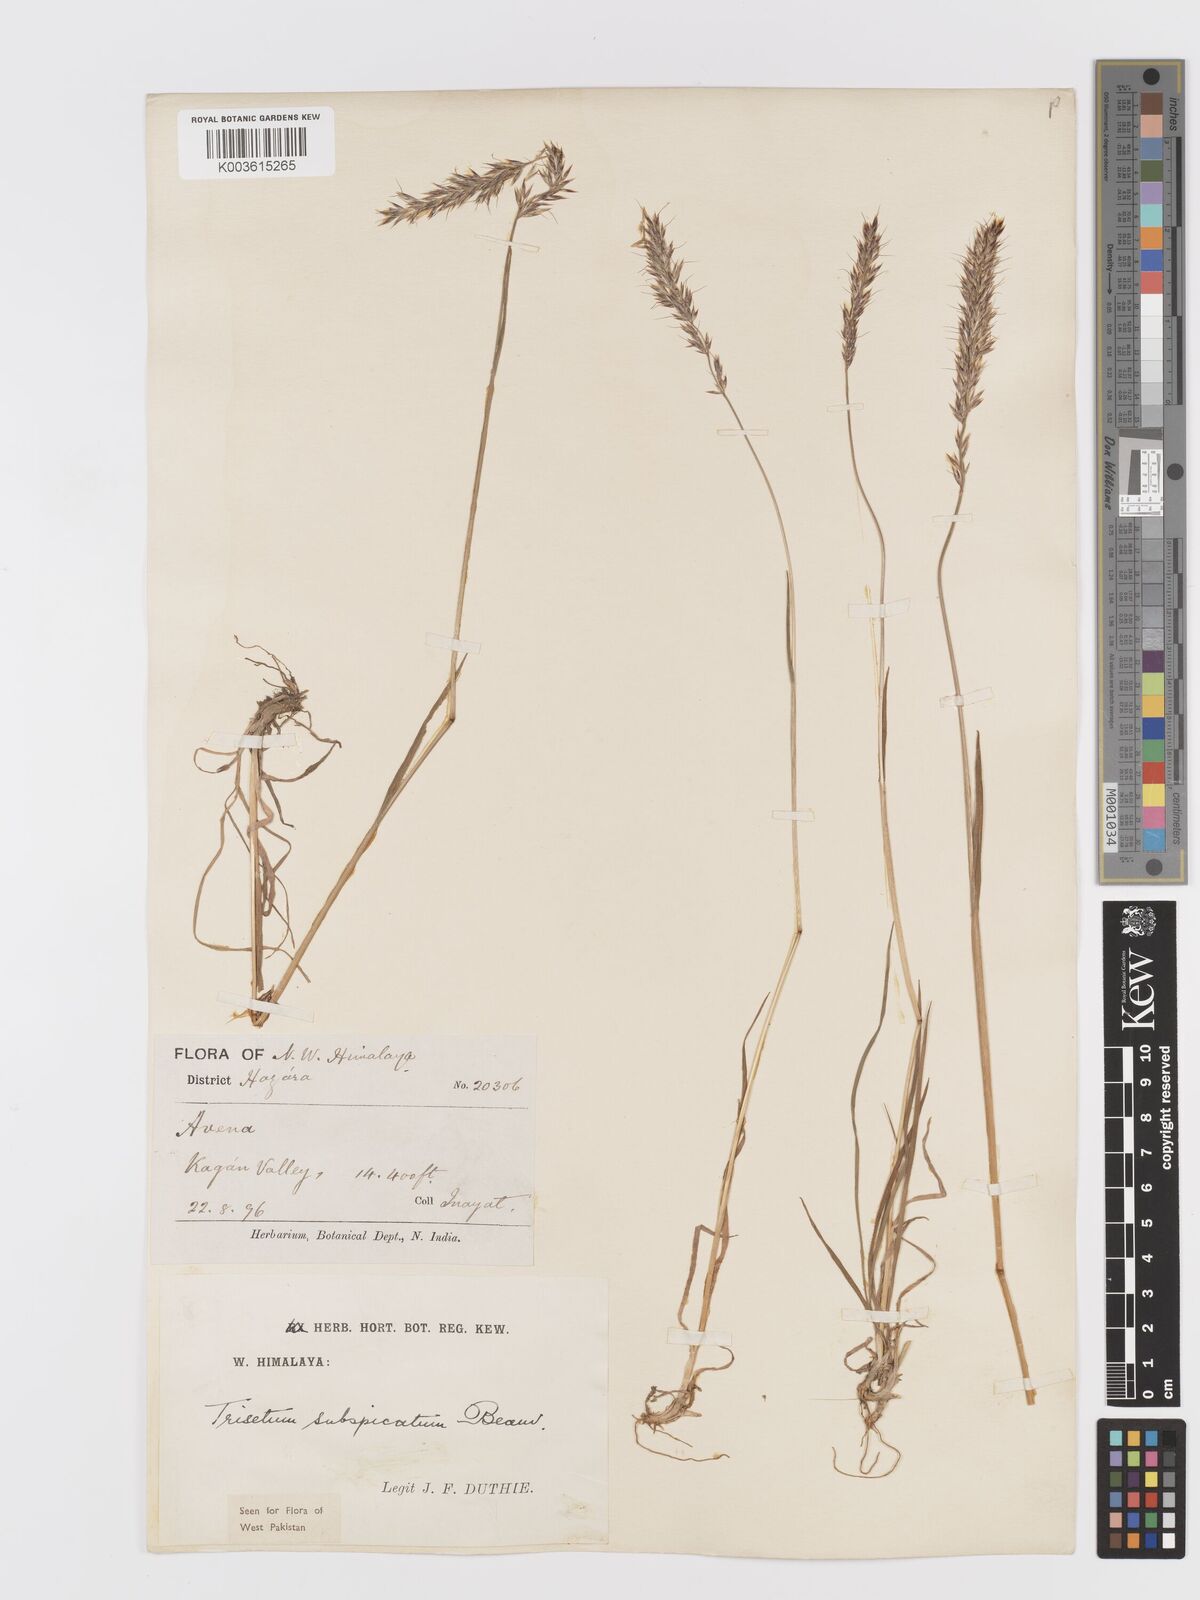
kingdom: Plantae
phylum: Tracheophyta
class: Liliopsida
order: Poales
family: Poaceae
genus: Koeleria
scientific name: Koeleria spicata
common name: Mountain trisetum
